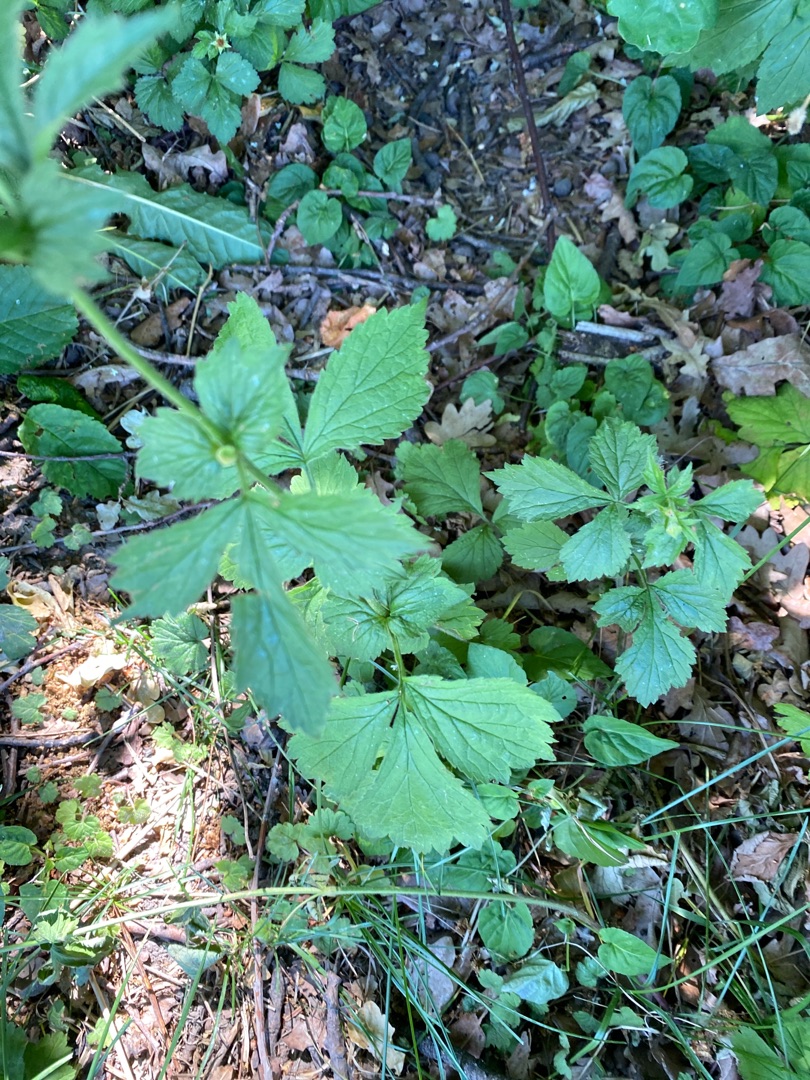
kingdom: Plantae
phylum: Tracheophyta
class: Magnoliopsida
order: Rosales
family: Rosaceae
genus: Geum
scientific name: Geum urbanum
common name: Feber-nellikerod
